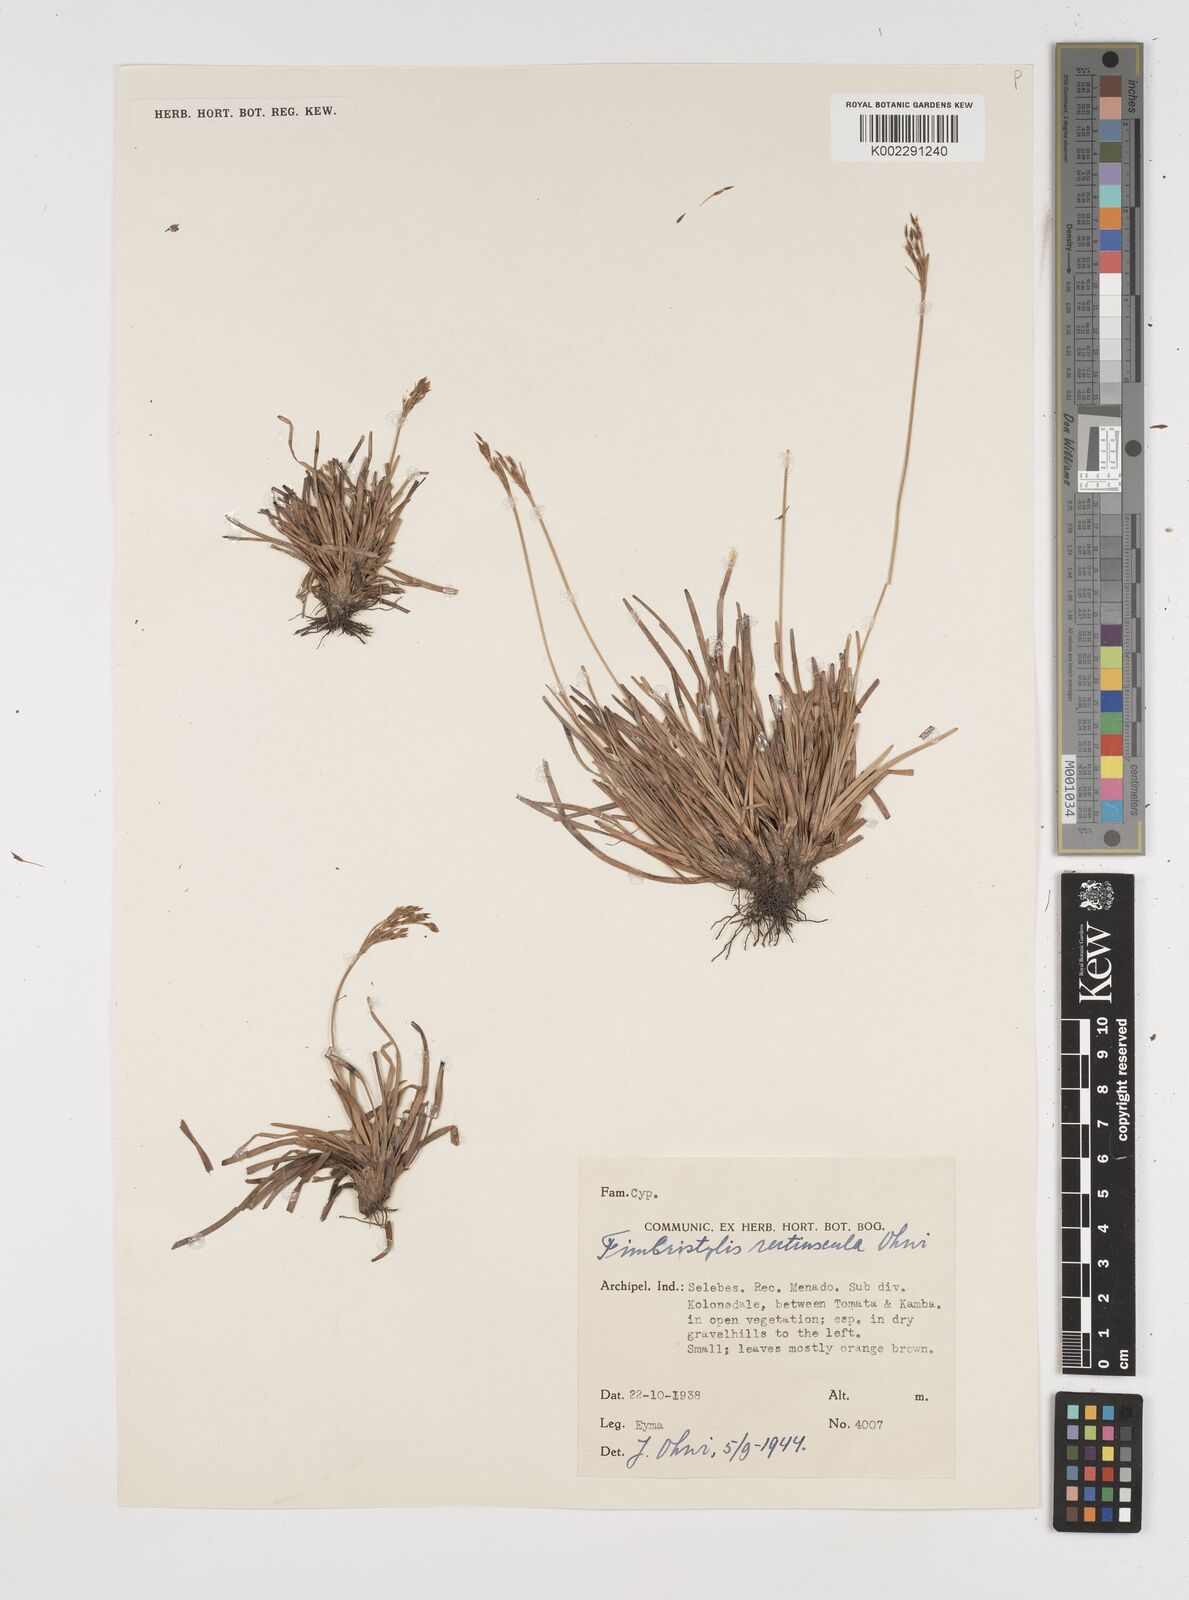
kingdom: Plantae
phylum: Tracheophyta
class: Liliopsida
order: Poales
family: Cyperaceae
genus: Fimbristylis
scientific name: Fimbristylis
